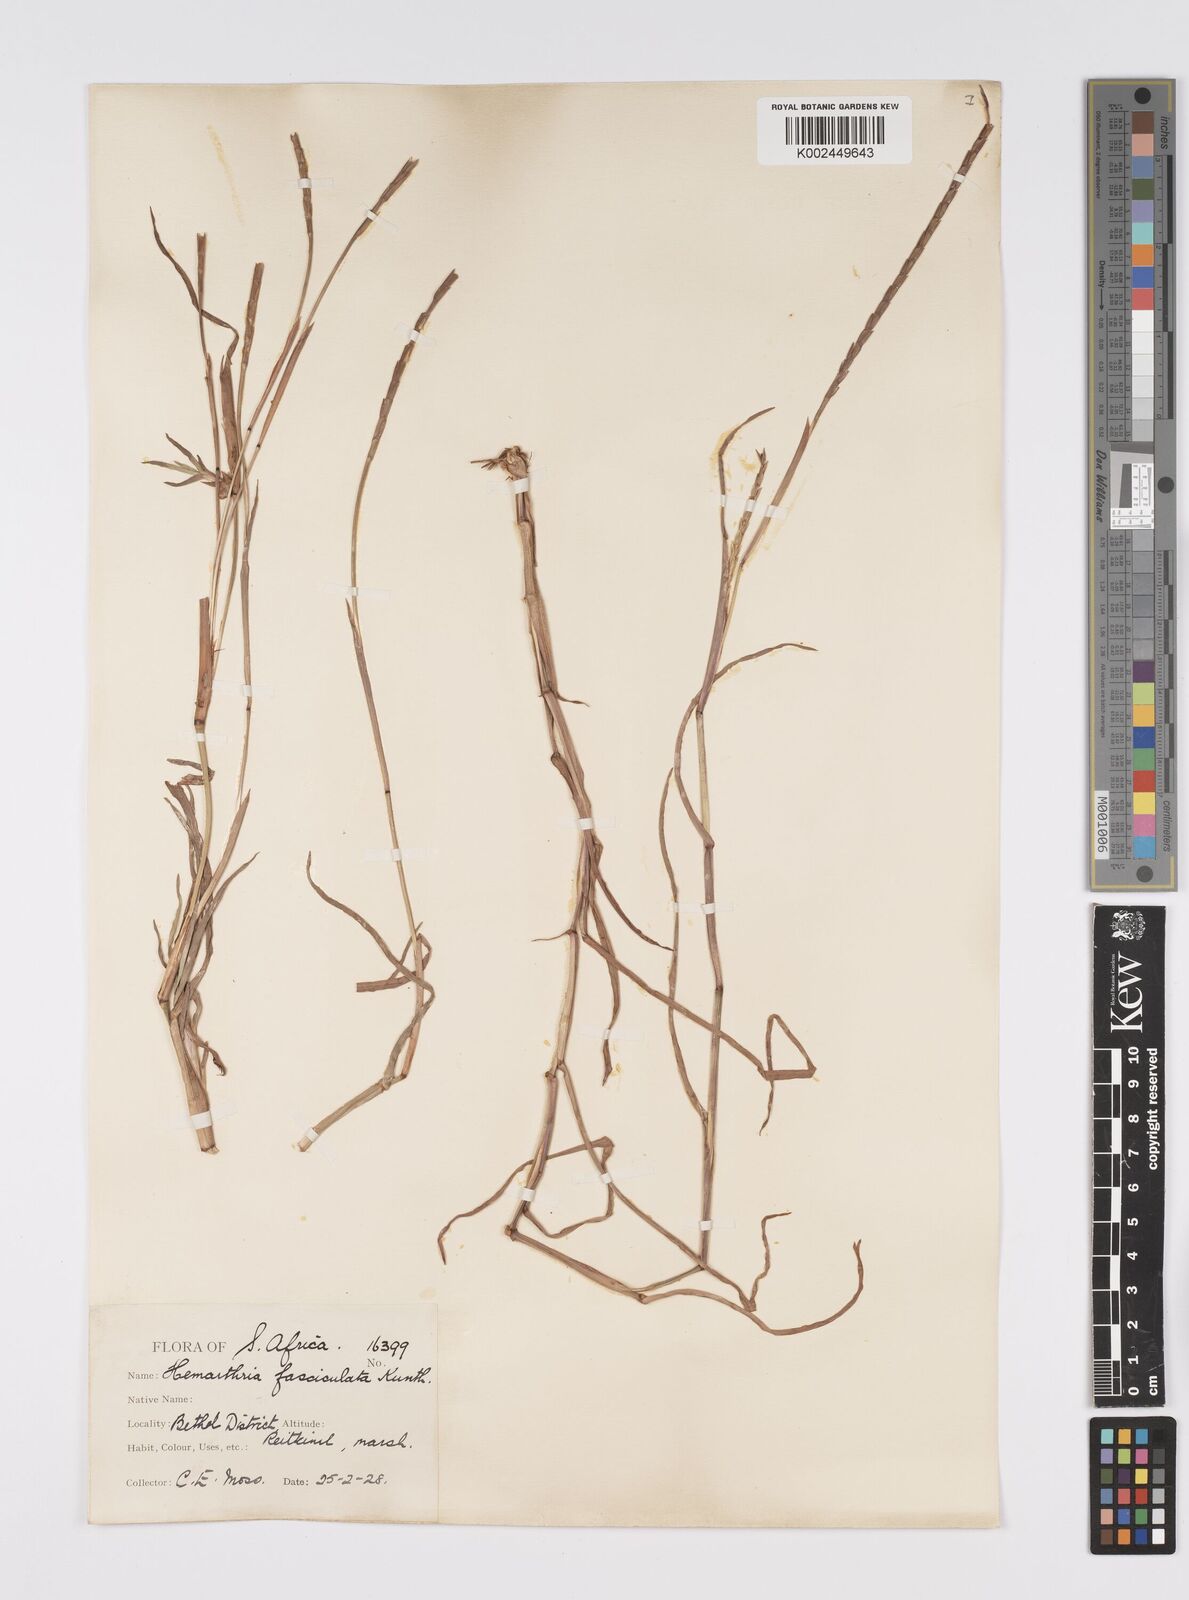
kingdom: Plantae
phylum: Tracheophyta
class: Liliopsida
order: Poales
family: Poaceae
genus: Hemarthria
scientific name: Hemarthria altissima
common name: African jointgrass
